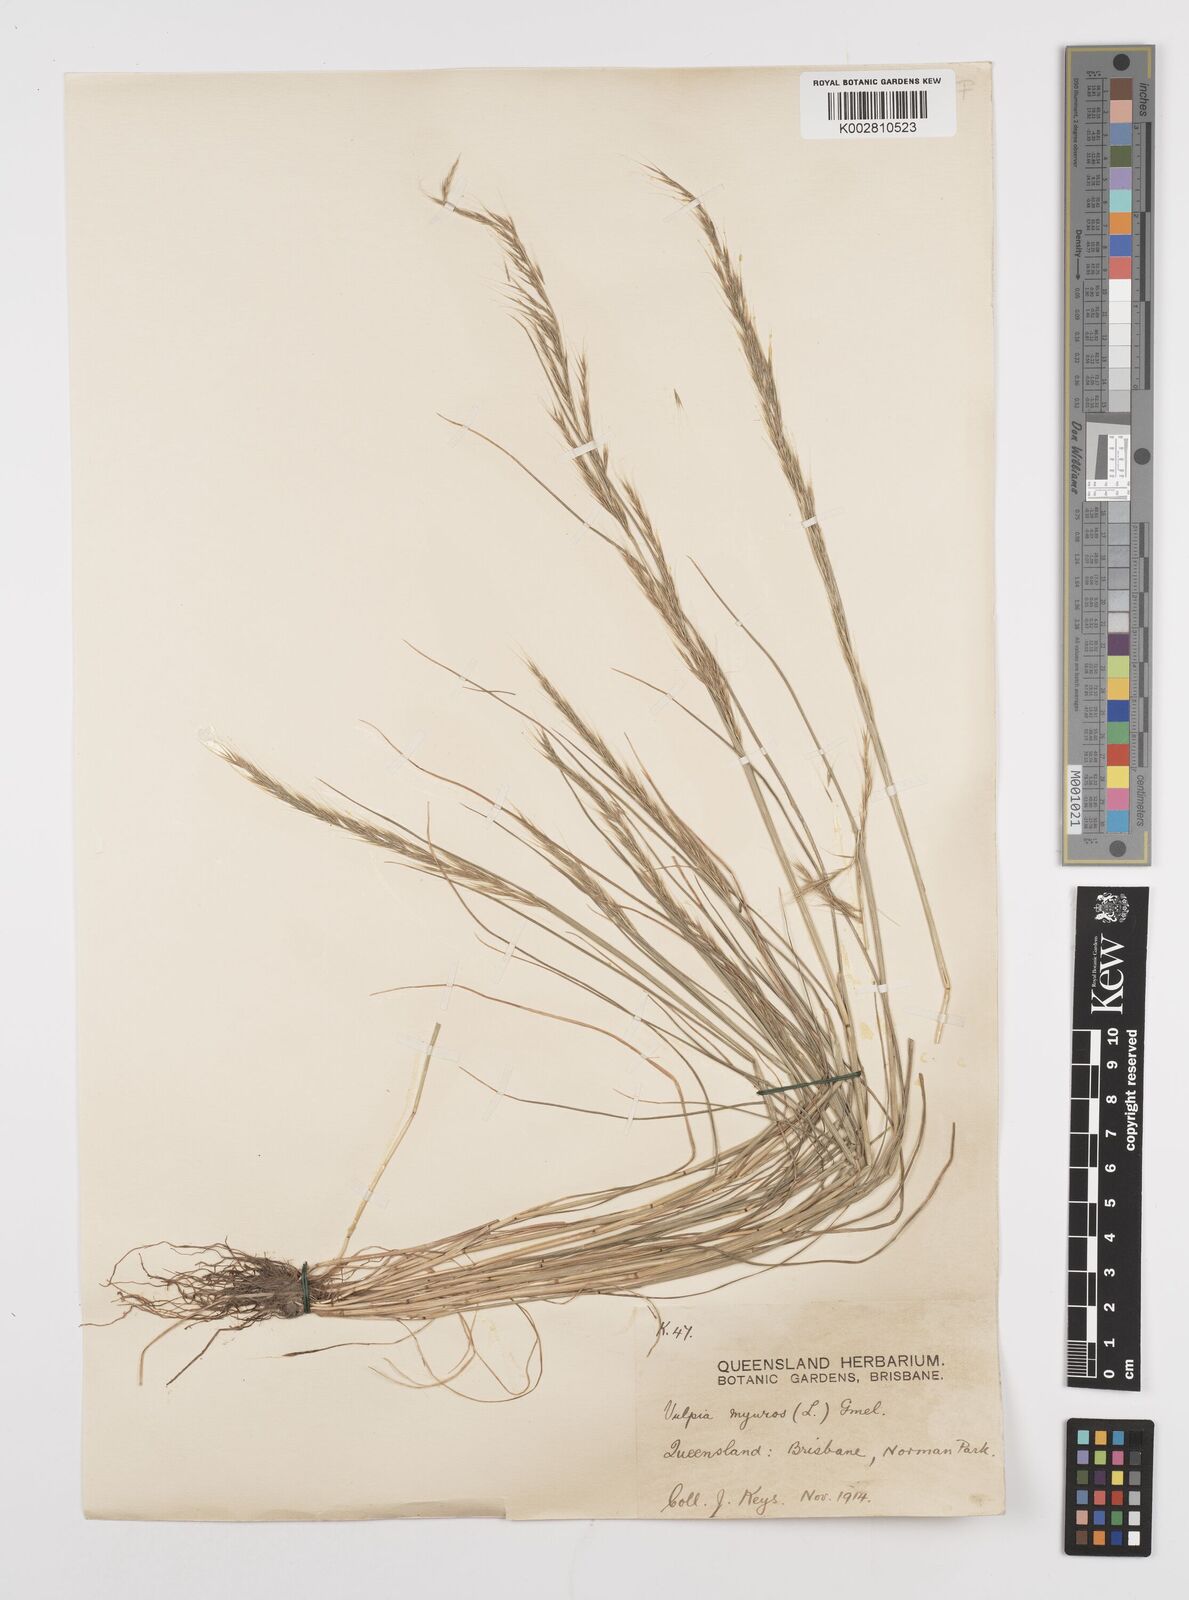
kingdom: Plantae
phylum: Tracheophyta
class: Liliopsida
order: Poales
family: Poaceae
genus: Festuca
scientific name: Festuca myuros
